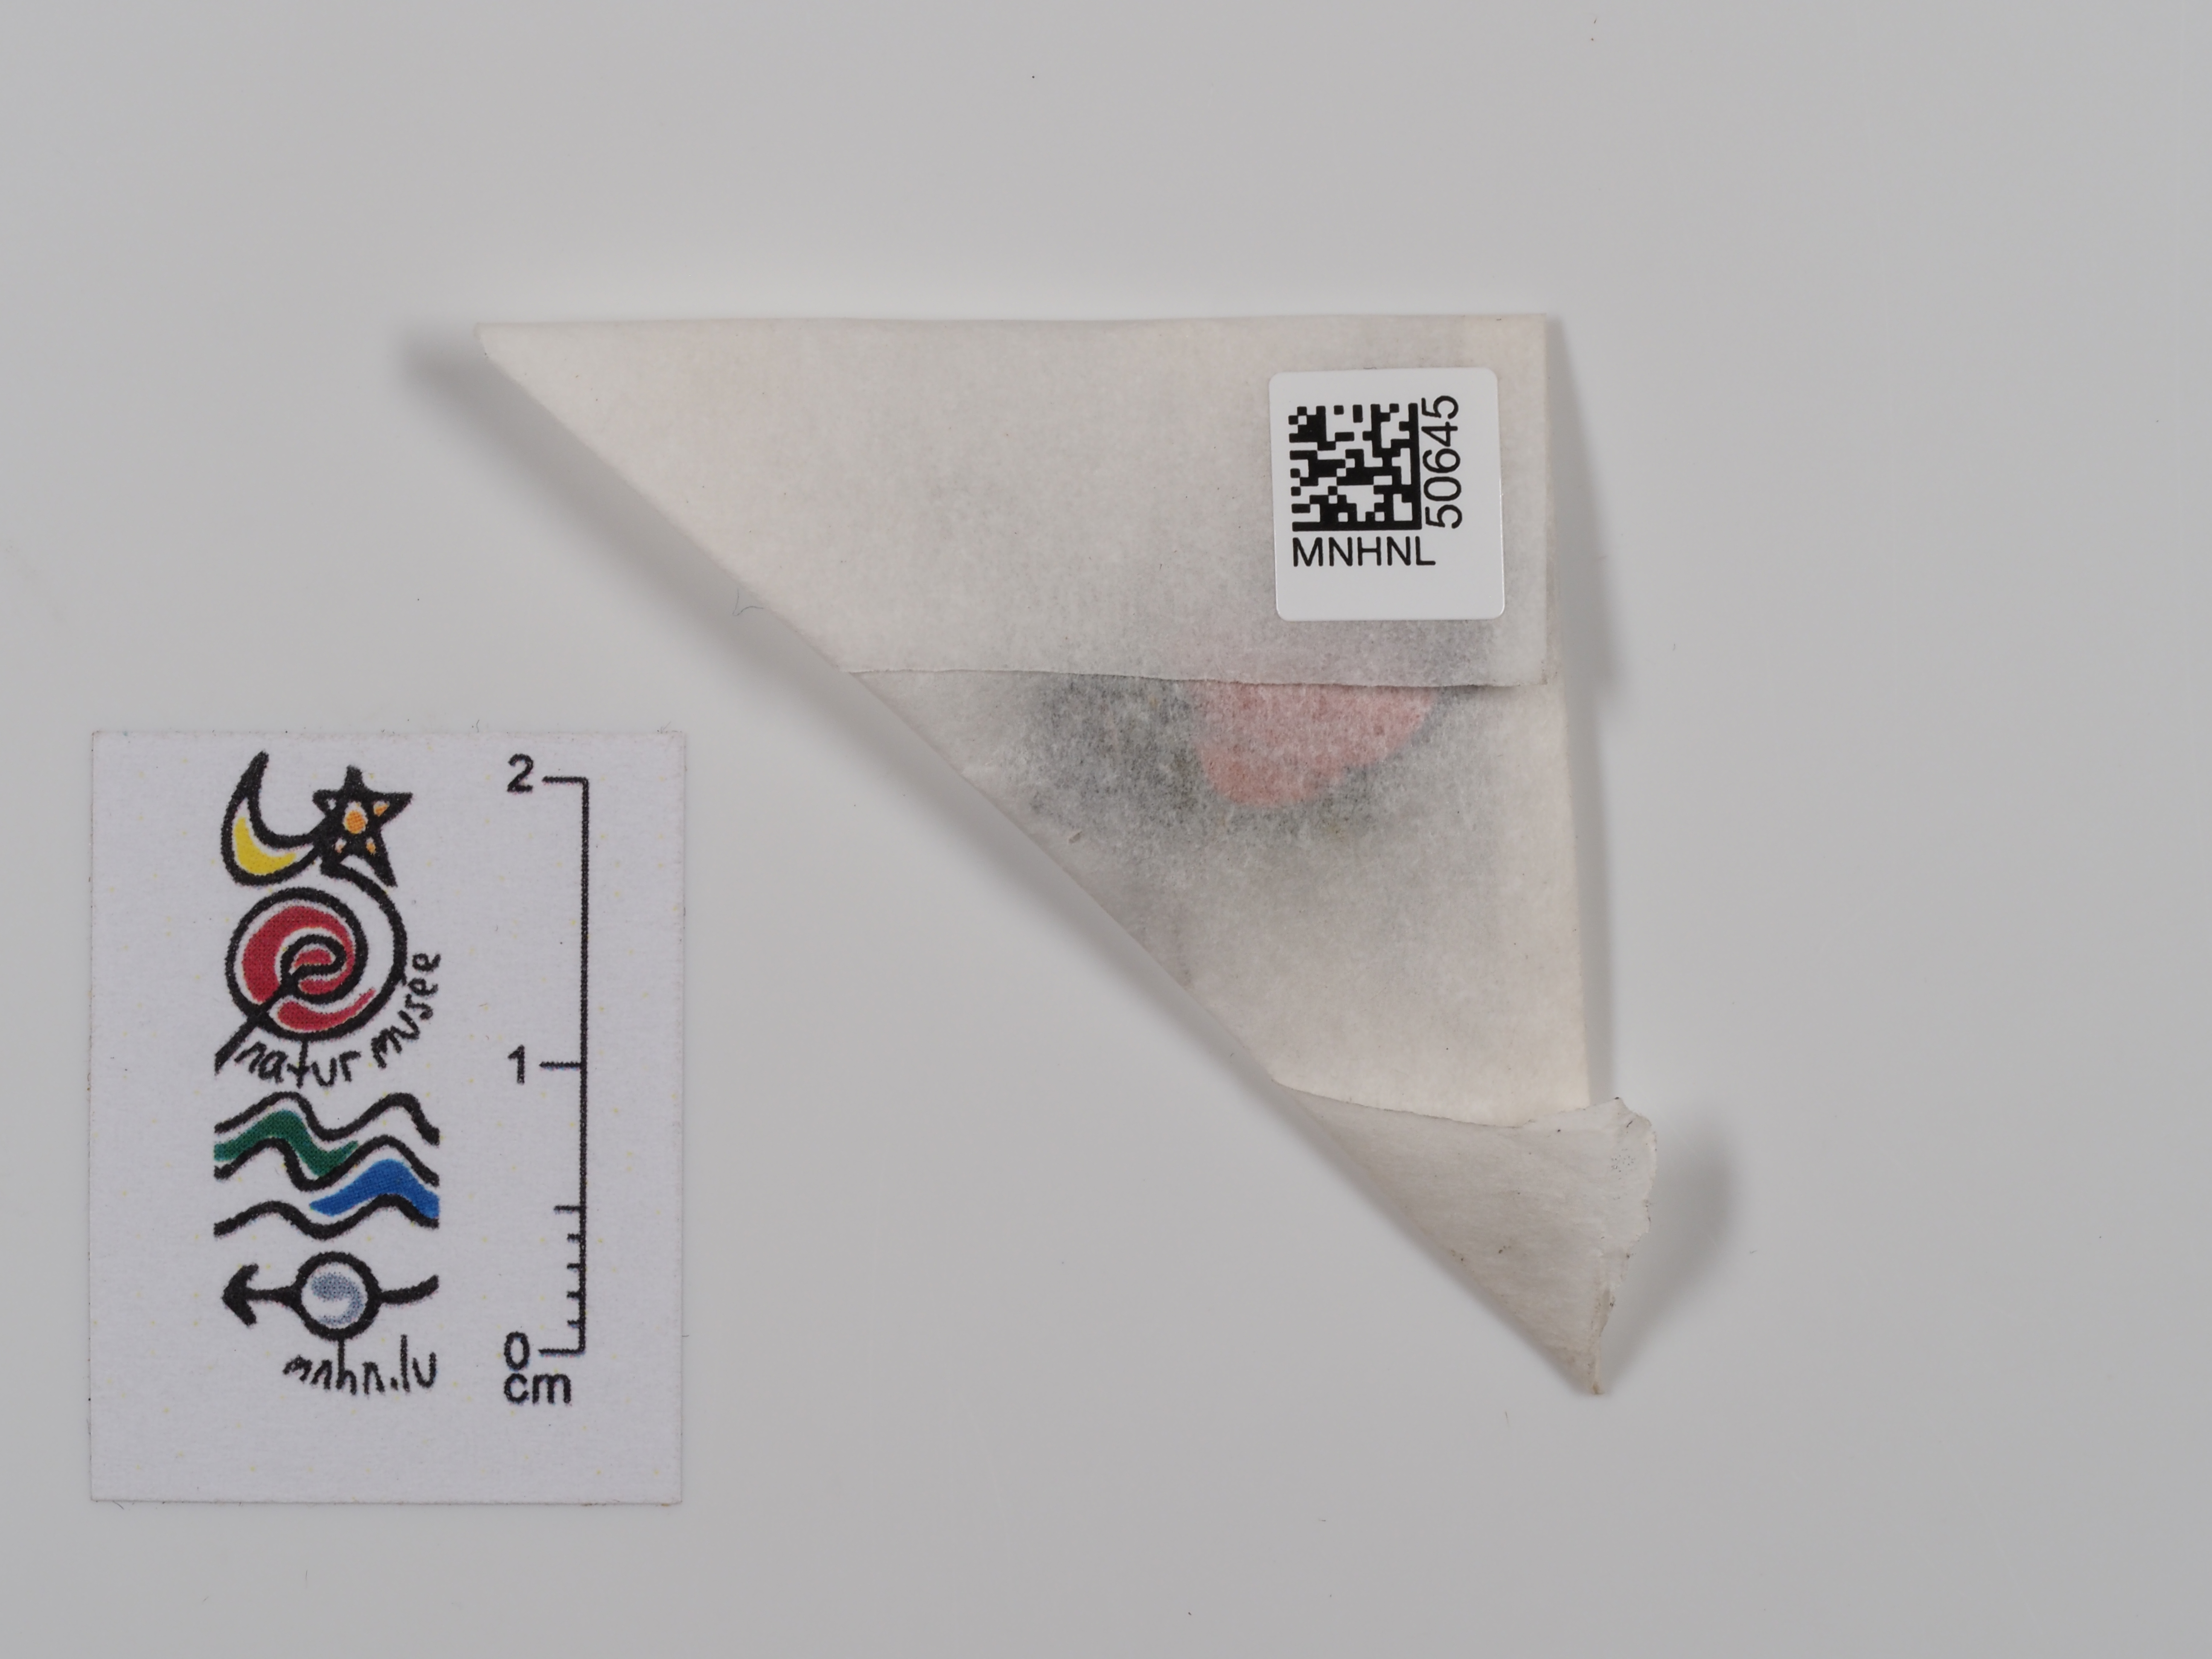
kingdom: Animalia
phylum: Arthropoda
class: Insecta
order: Lepidoptera
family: Zygaenidae
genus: Zygaena
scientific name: Zygaena carniolica
